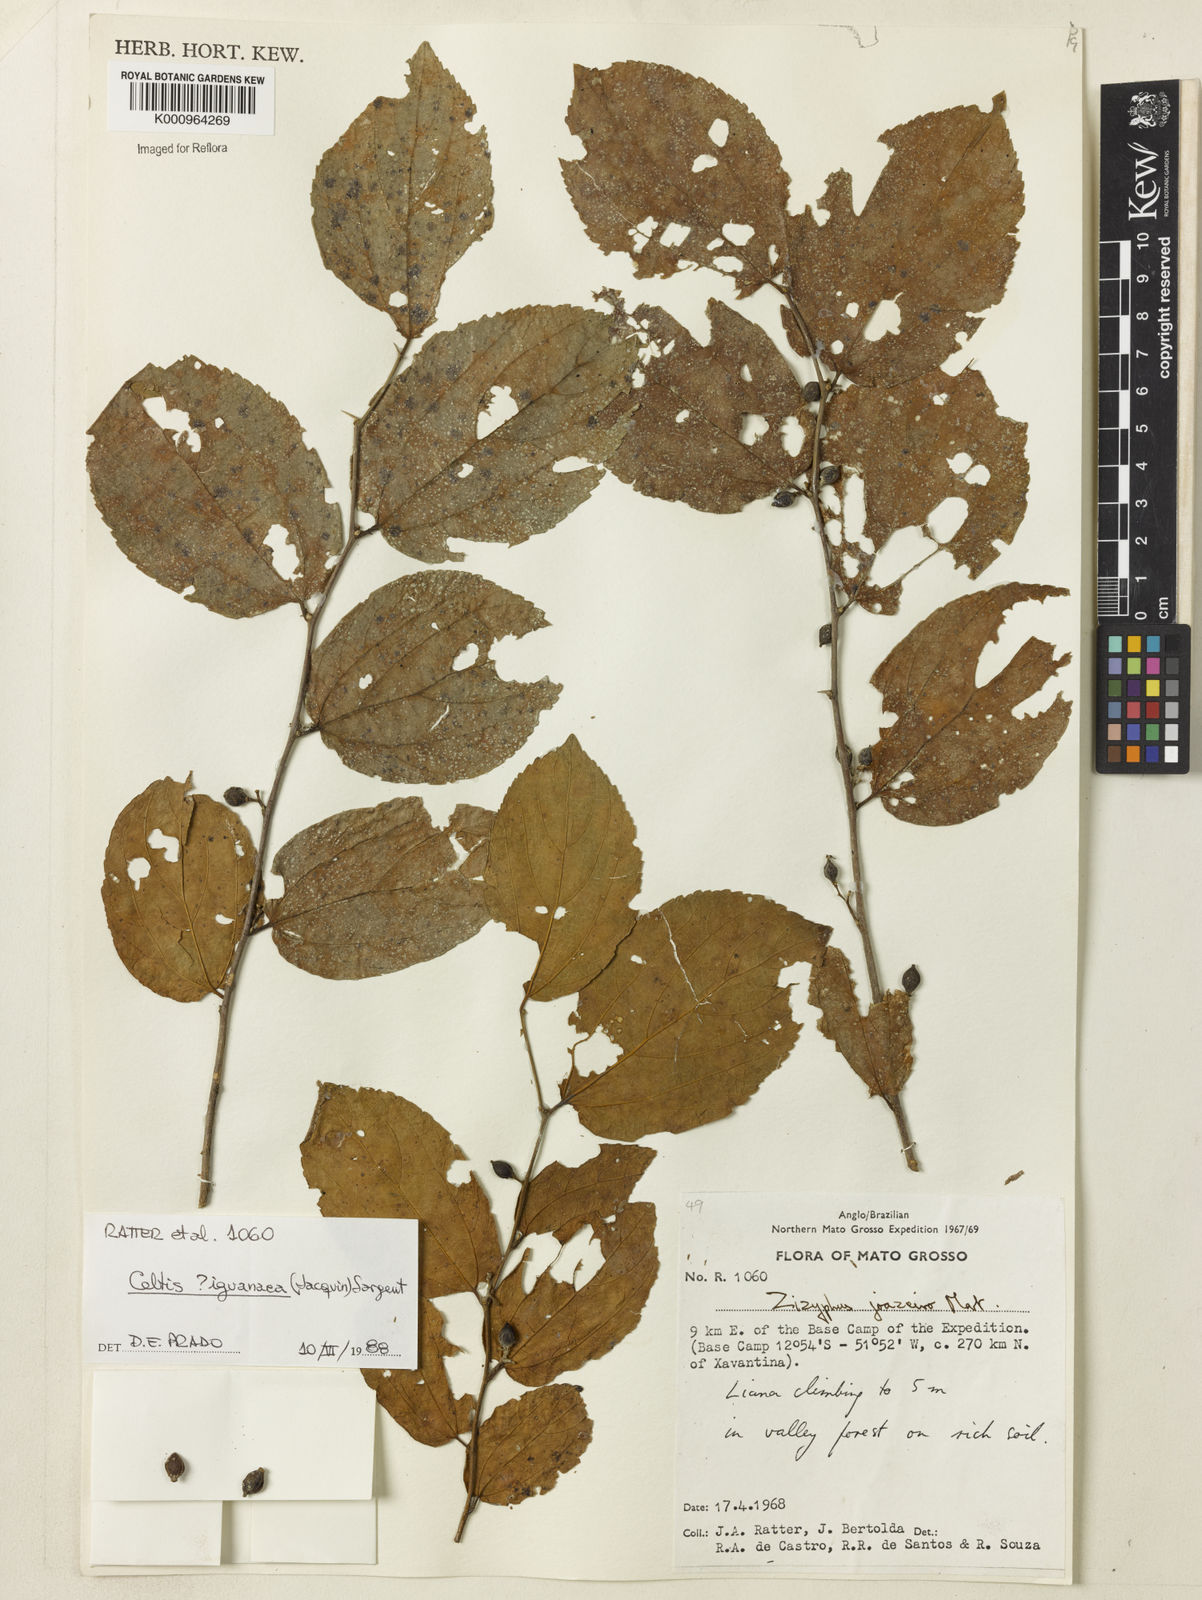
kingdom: Plantae
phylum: Tracheophyta
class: Magnoliopsida
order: Rosales
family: Cannabaceae
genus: Celtis
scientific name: Celtis iguanaea
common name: Iguana hackberry
